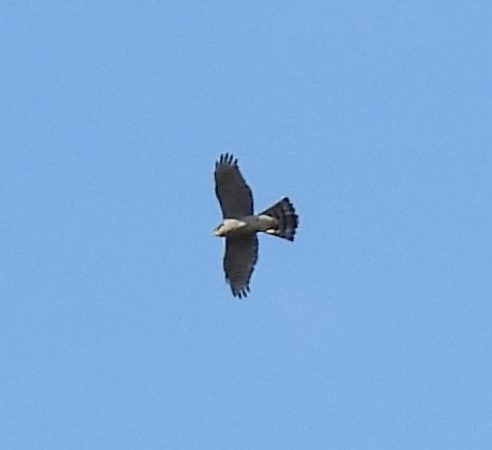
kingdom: Animalia
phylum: Chordata
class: Aves
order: Accipitriformes
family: Accipitridae
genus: Accipiter
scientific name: Accipiter gentilis
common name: Duehøg
